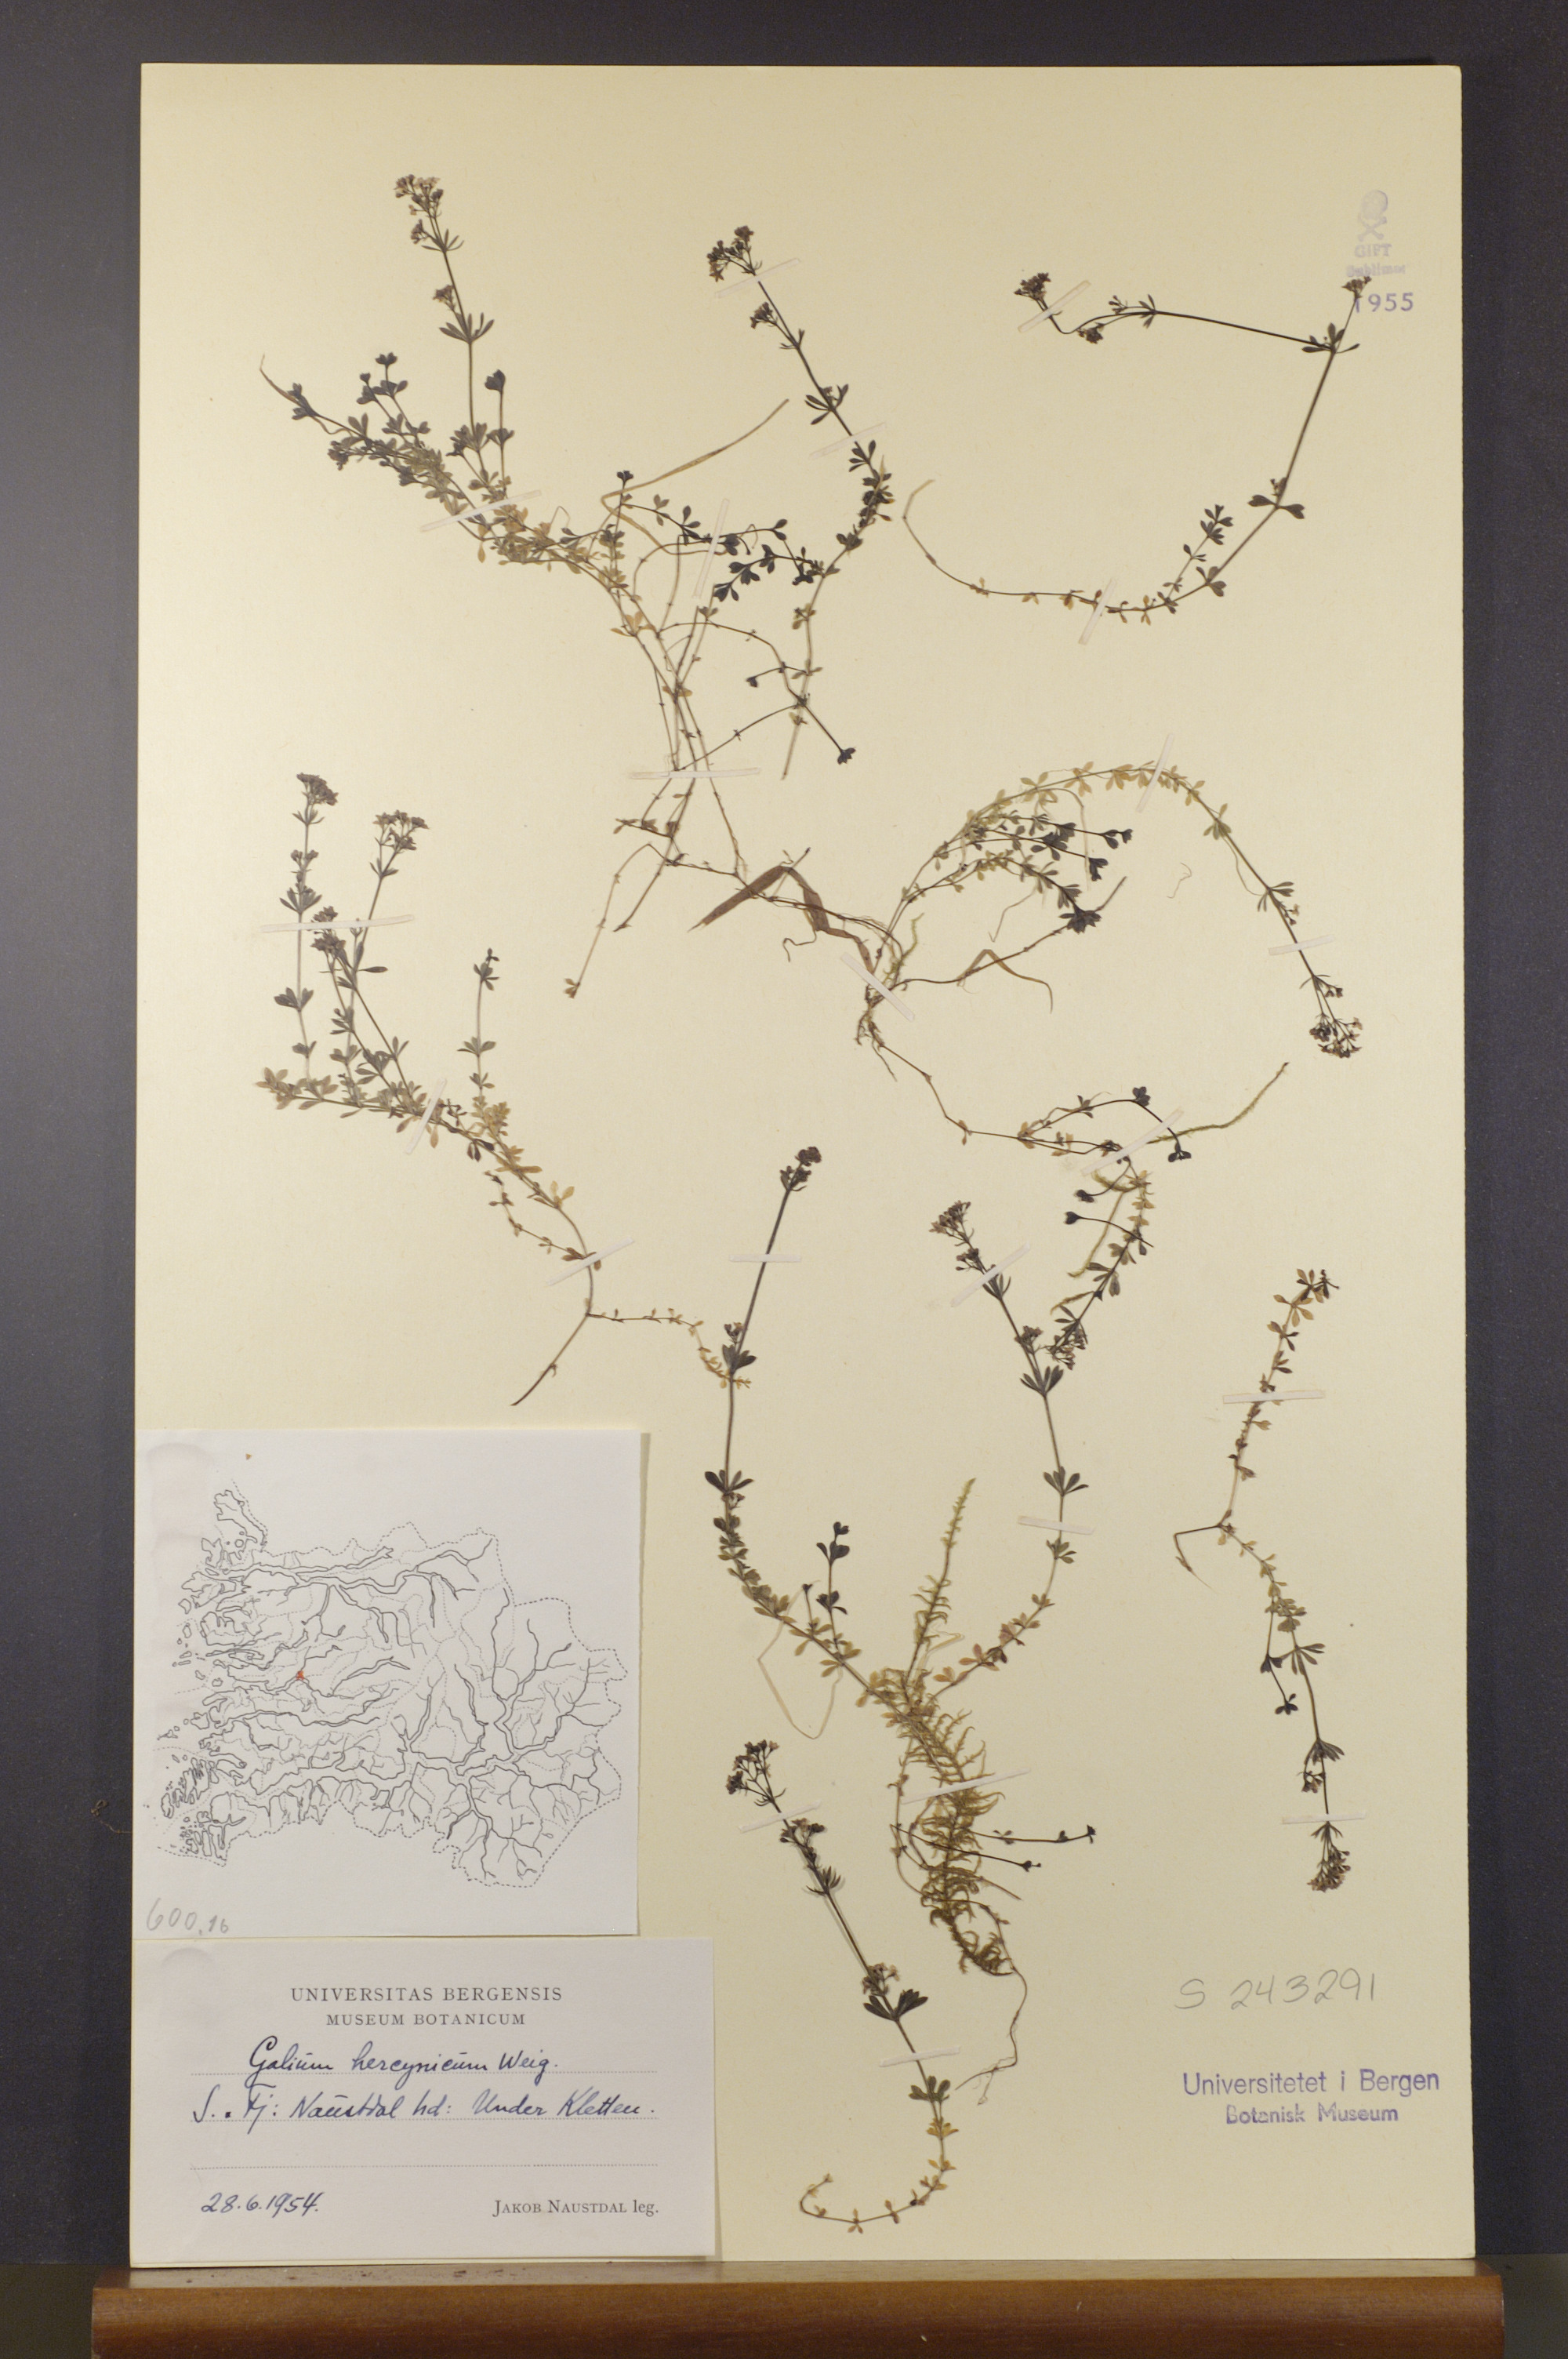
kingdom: Plantae
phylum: Tracheophyta
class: Magnoliopsida
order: Gentianales
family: Rubiaceae
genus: Galium
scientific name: Galium saxatile
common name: Heath bedstraw
